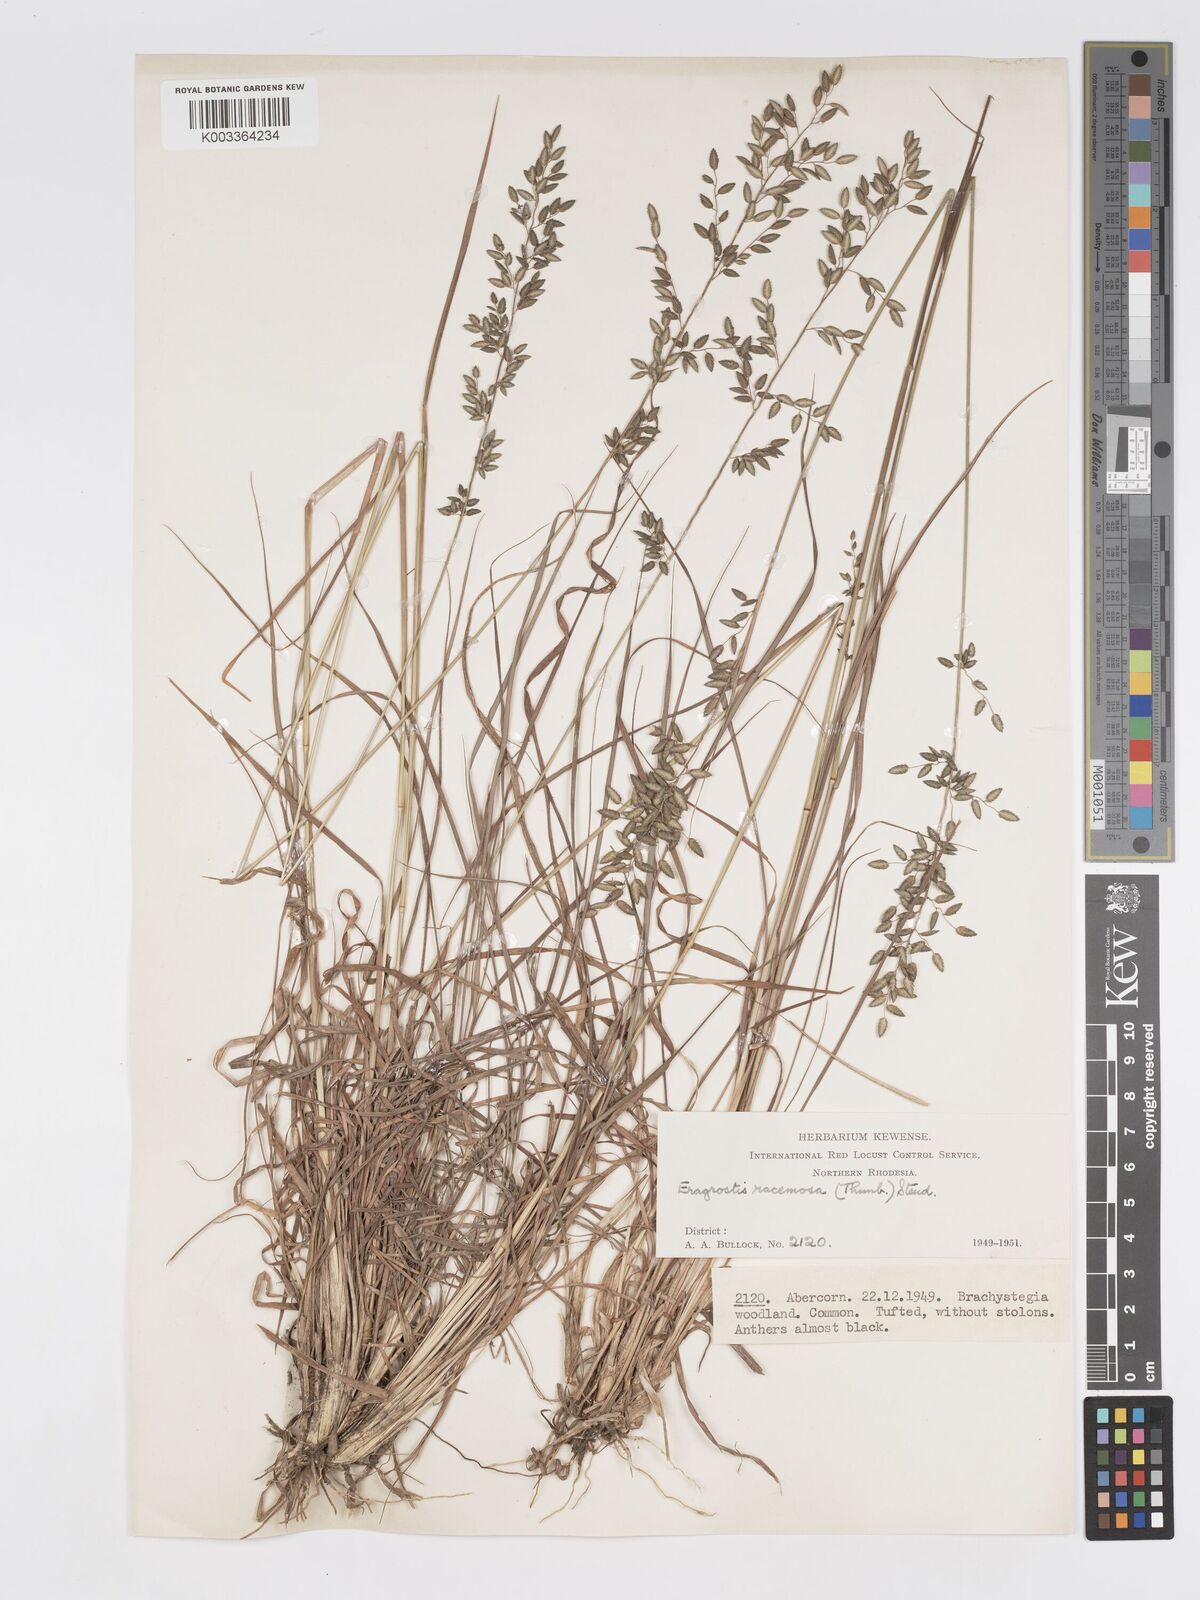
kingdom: Plantae
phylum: Tracheophyta
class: Liliopsida
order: Poales
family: Poaceae
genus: Eragrostis
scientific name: Eragrostis racemosa
